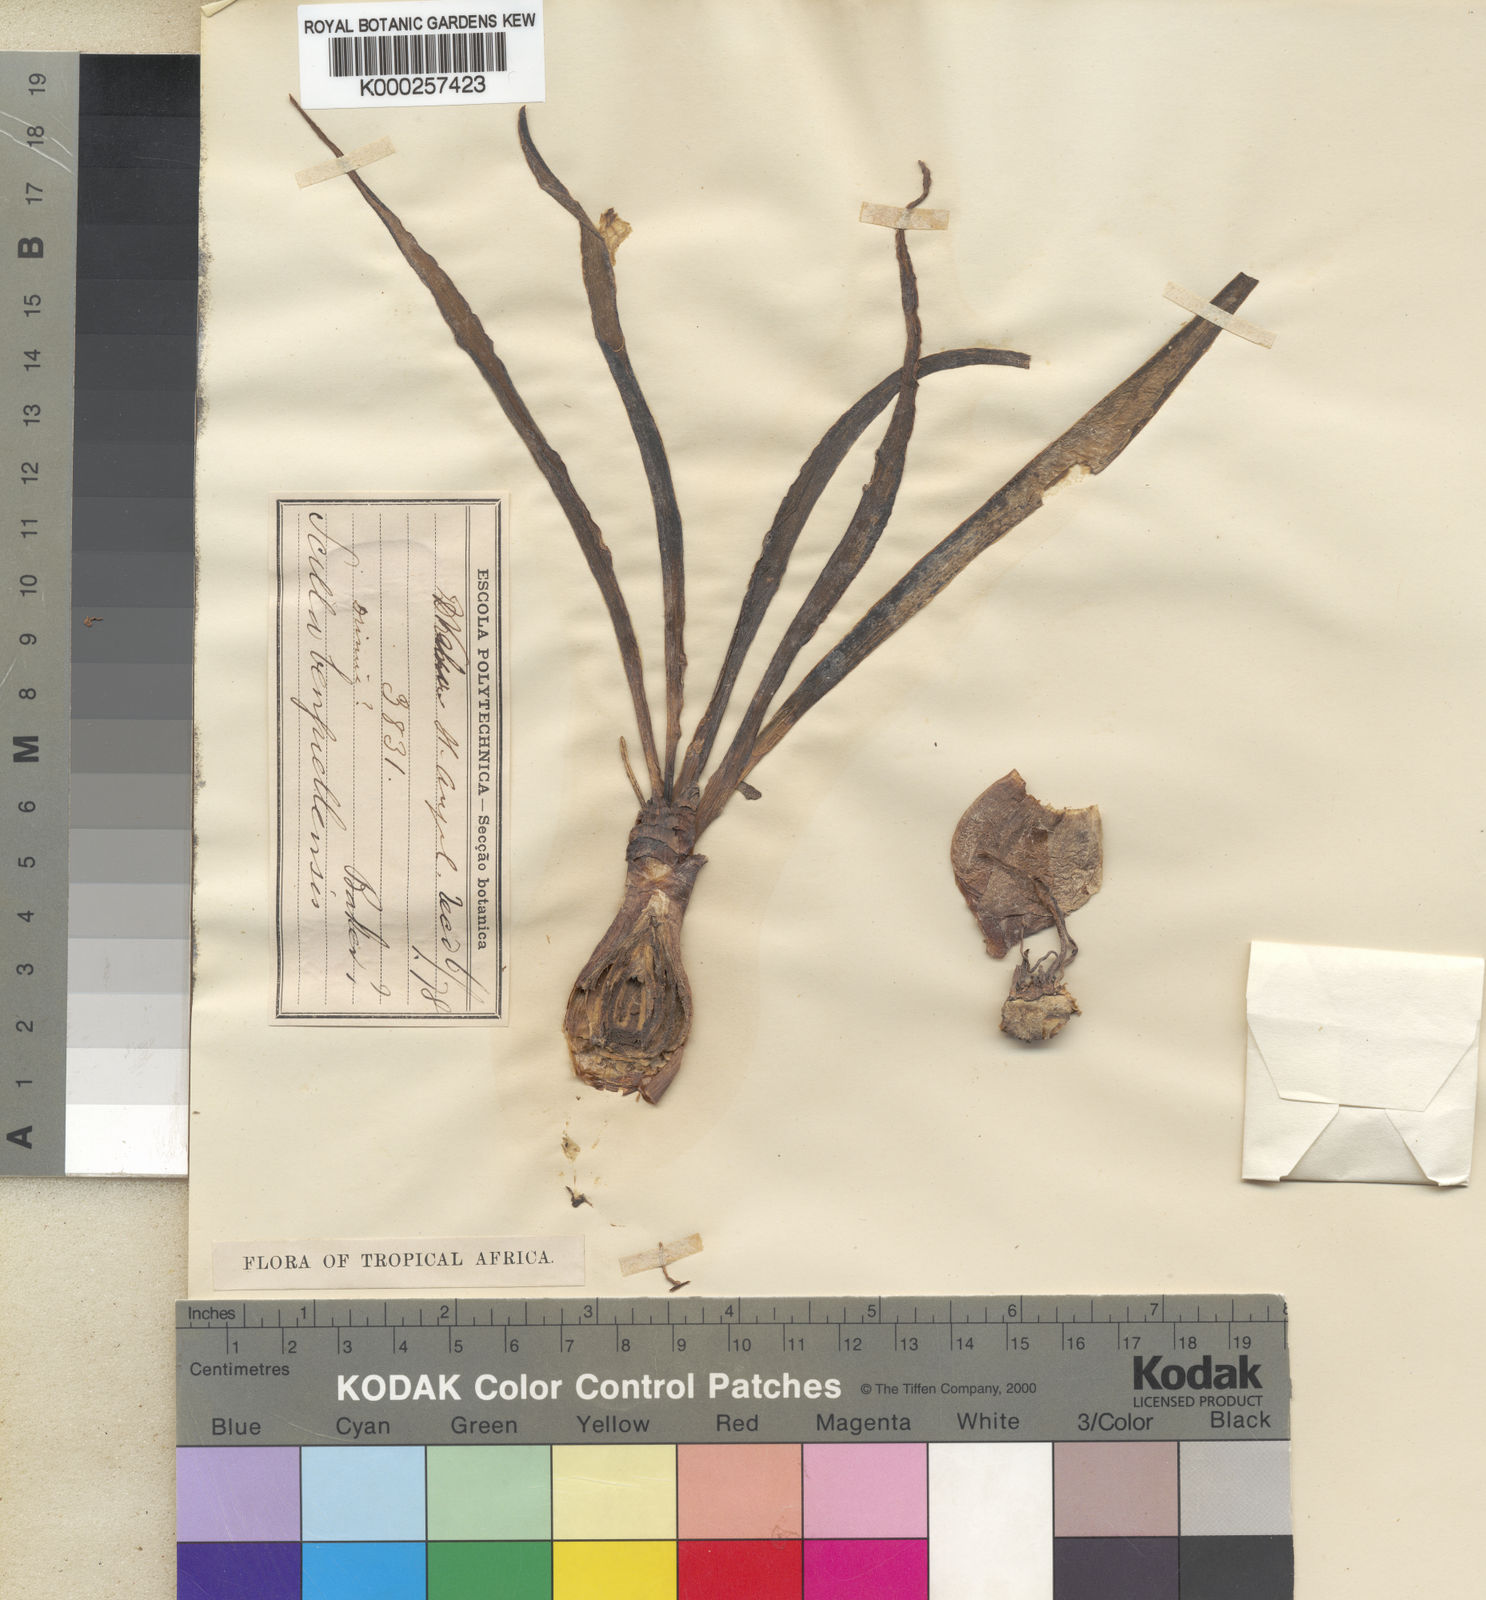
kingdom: Plantae
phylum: Tracheophyta
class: Liliopsida
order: Asparagales
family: Asparagaceae
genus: Scilla
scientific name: Scilla benguellensis
